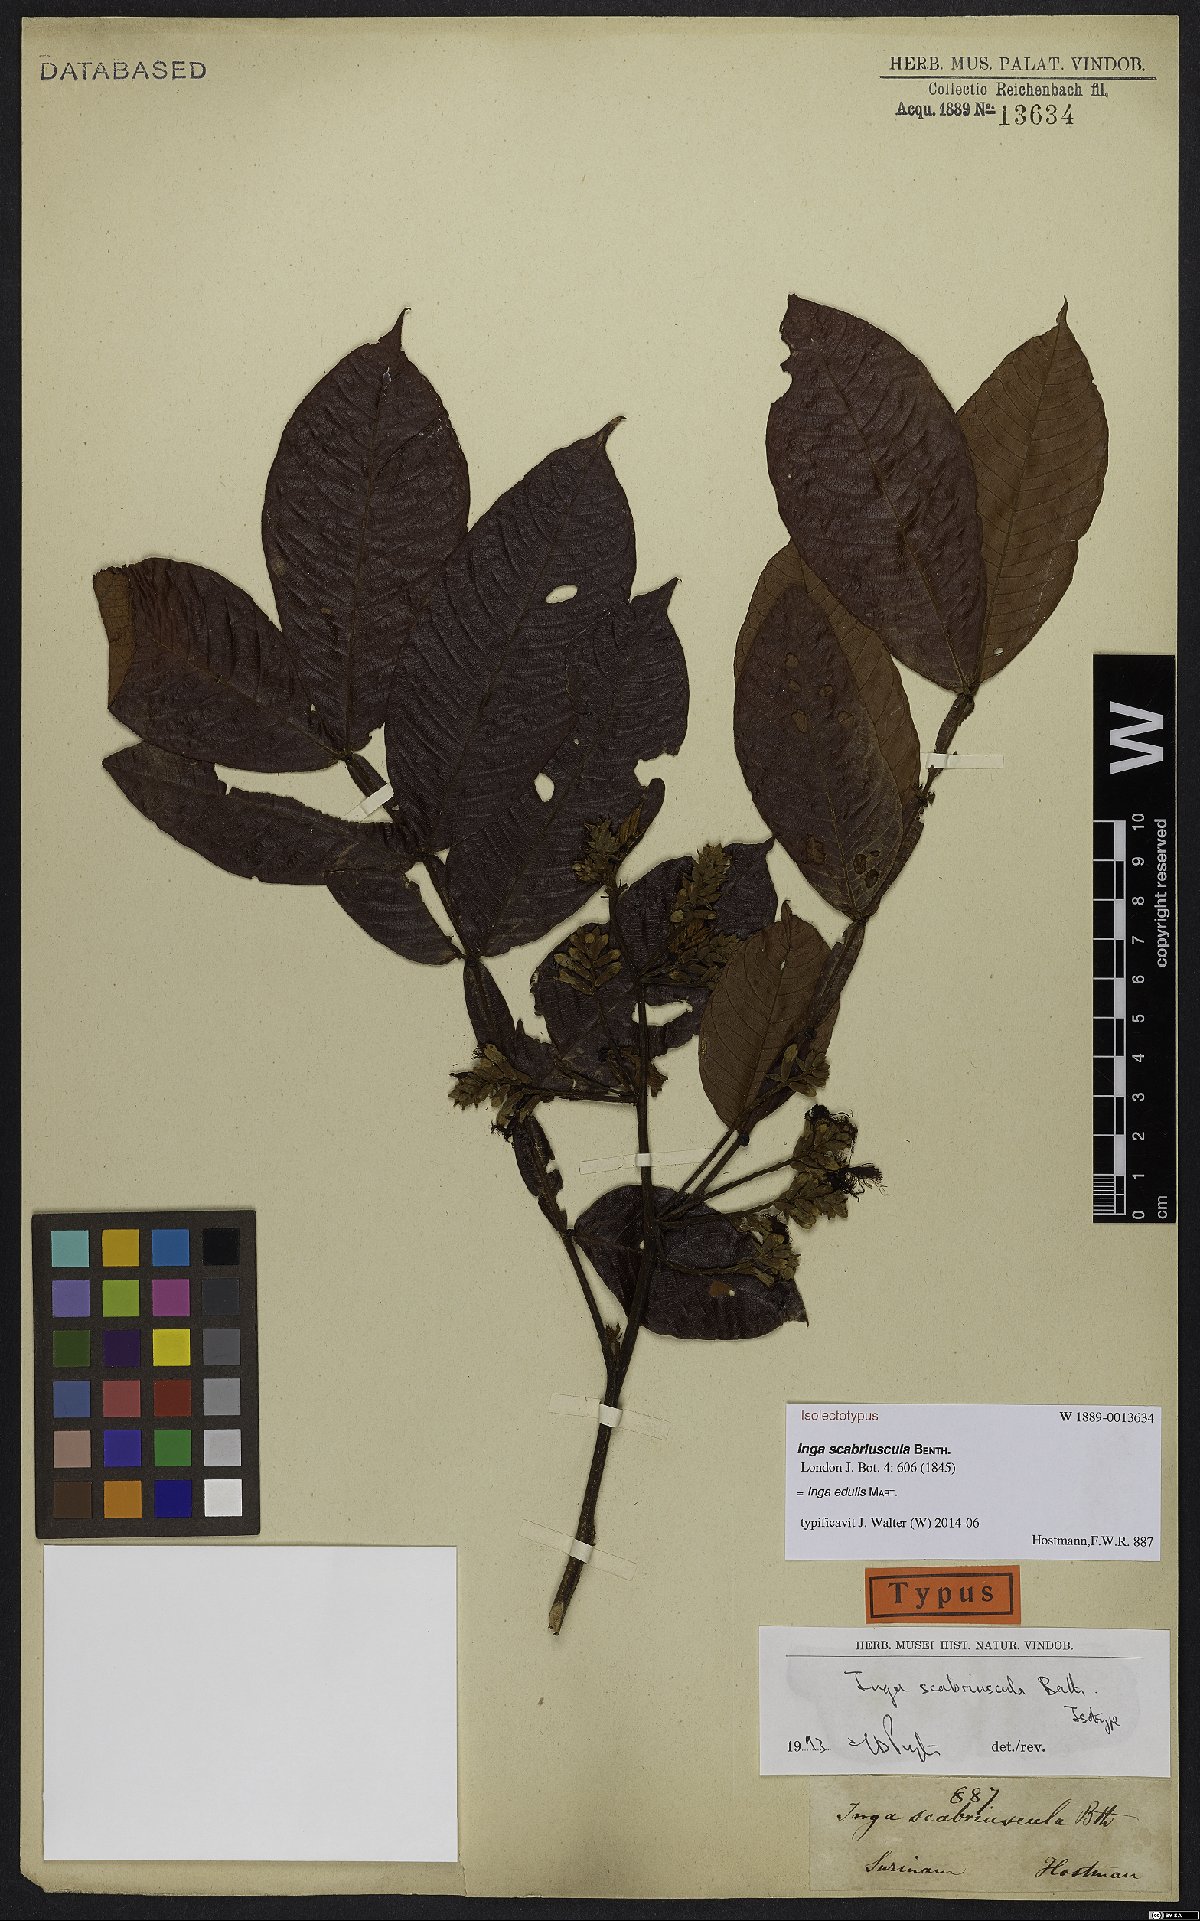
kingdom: Plantae
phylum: Tracheophyta
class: Magnoliopsida
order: Fabales
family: Fabaceae
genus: Inga
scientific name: Inga edulis
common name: Ice cream bean
